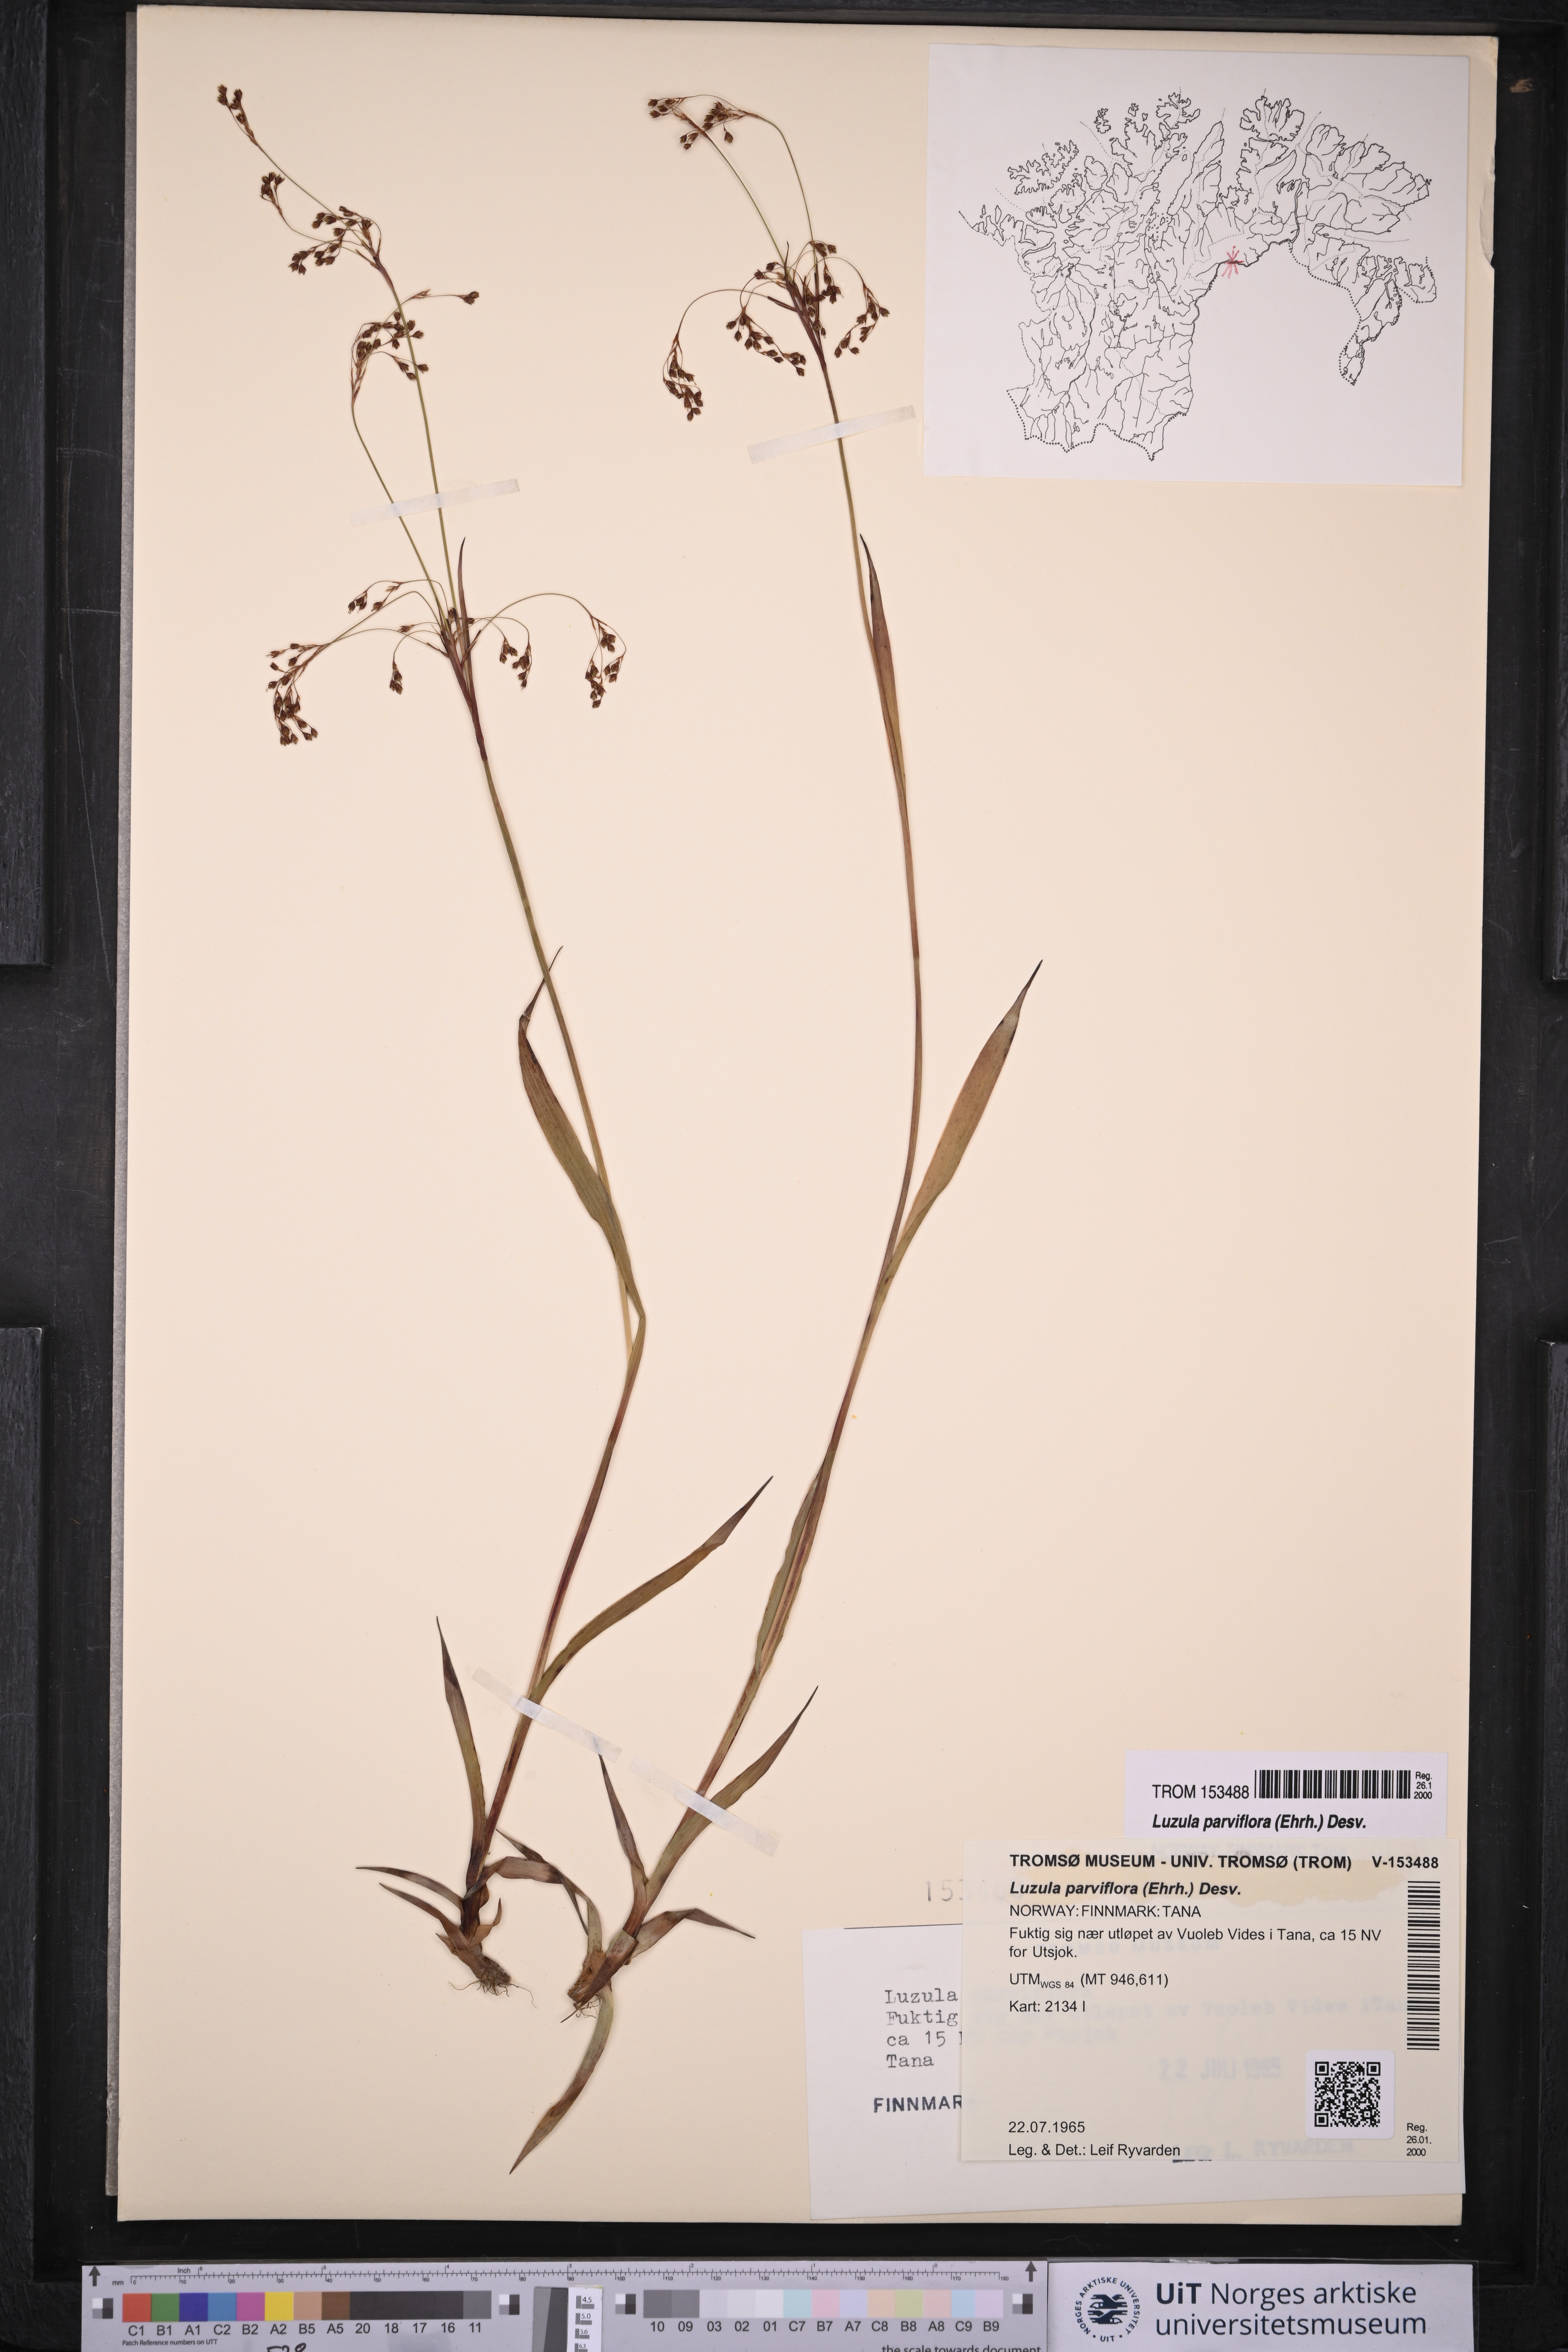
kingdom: Plantae
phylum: Tracheophyta
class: Liliopsida
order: Poales
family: Juncaceae
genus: Luzula
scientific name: Luzula parviflora
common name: Millet woodrush
